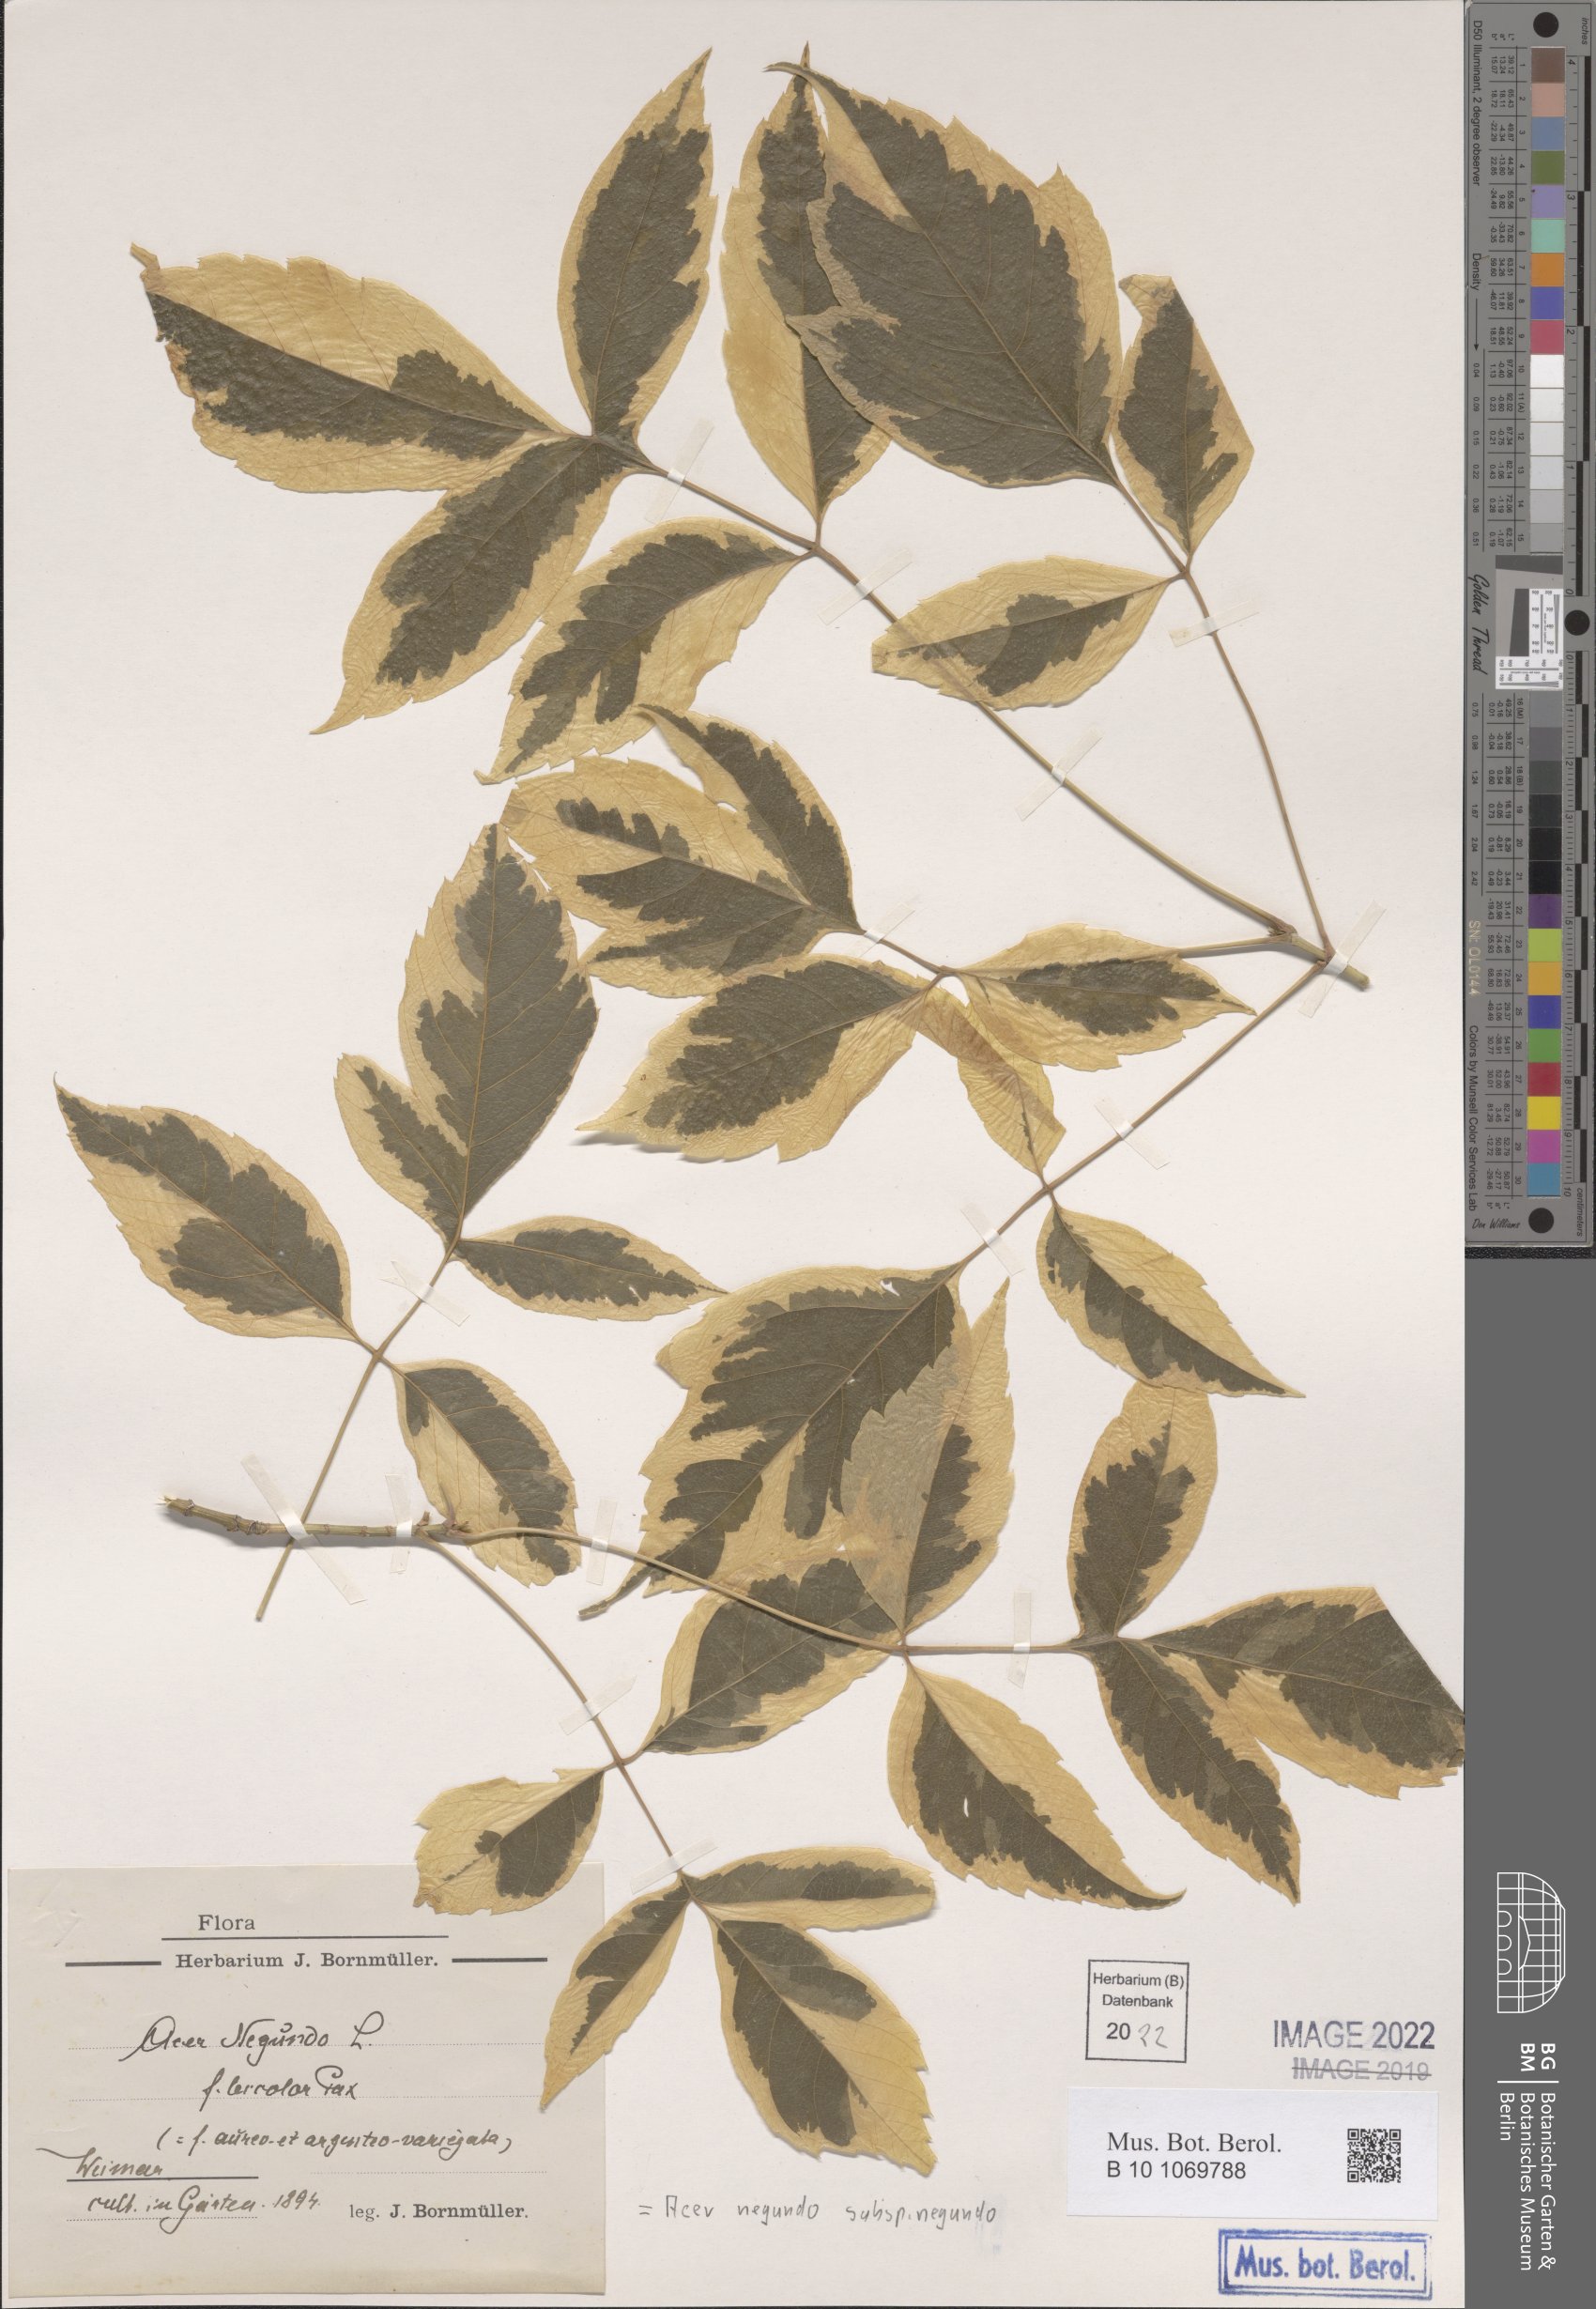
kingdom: Plantae
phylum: Tracheophyta
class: Magnoliopsida
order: Sapindales
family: Sapindaceae
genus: Acer
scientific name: Acer negundo
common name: Ashleaf maple
